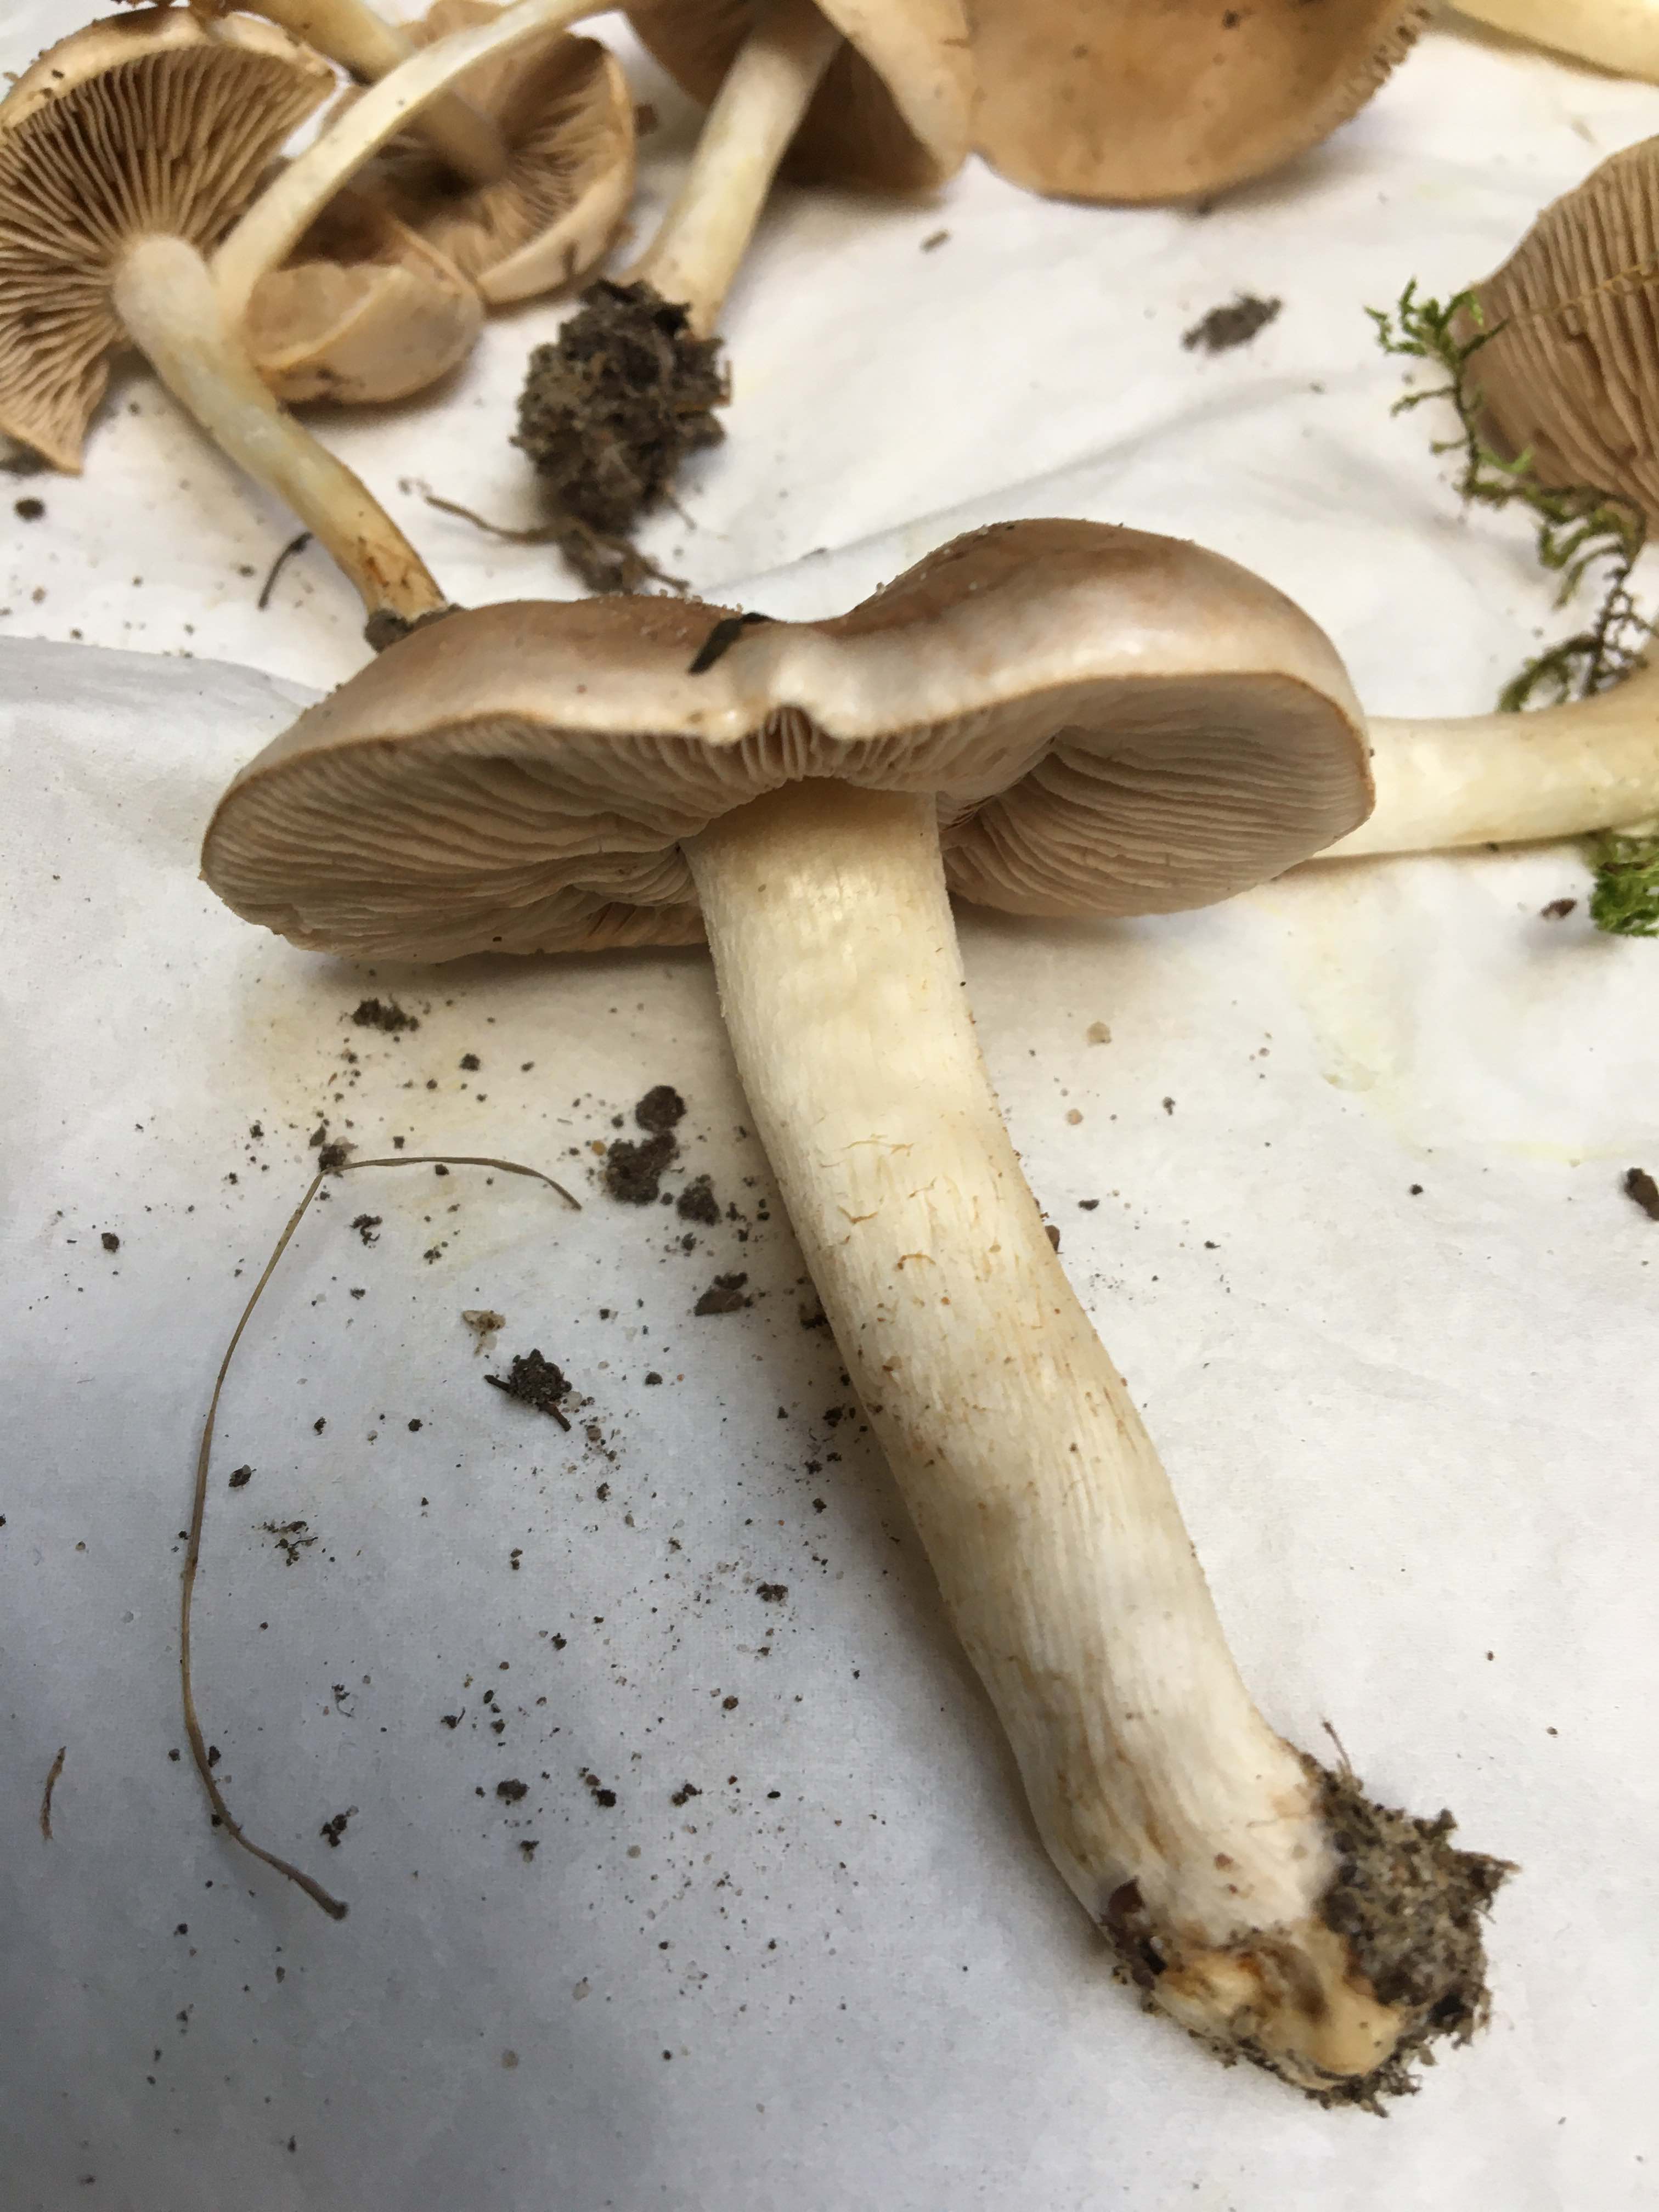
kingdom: Fungi
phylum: Basidiomycota
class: Agaricomycetes
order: Agaricales
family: Hymenogastraceae
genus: Hebeloma
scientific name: Hebeloma
